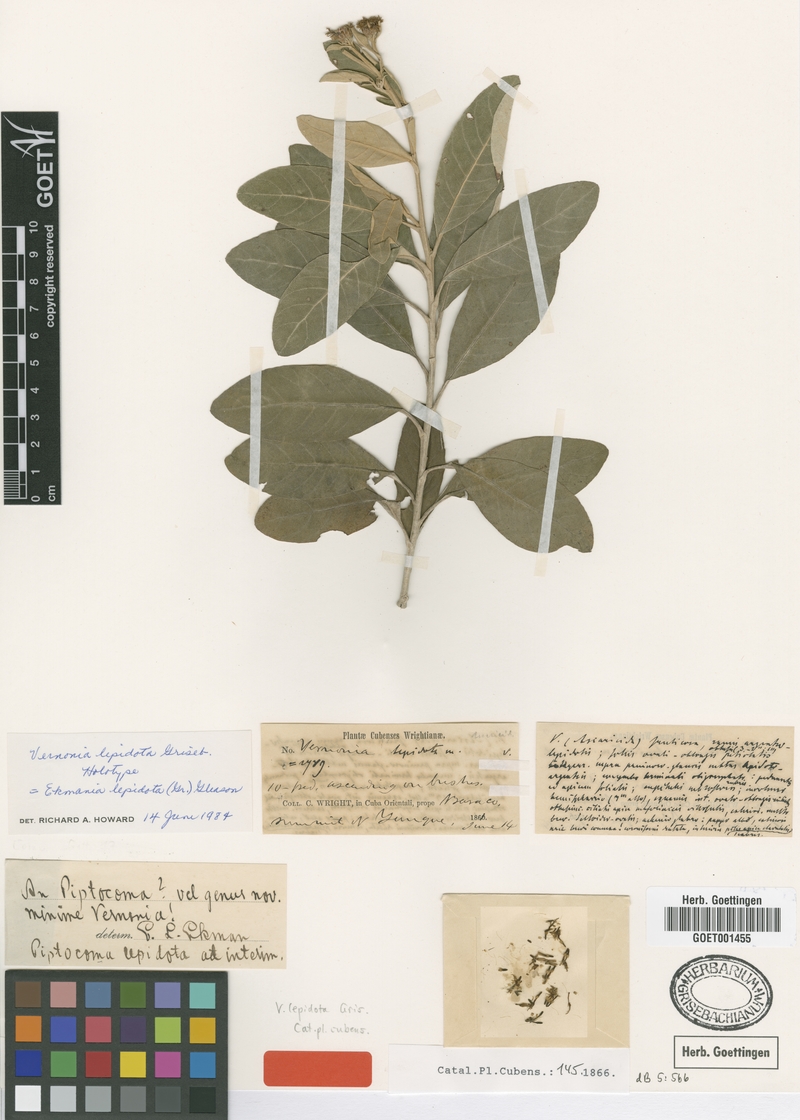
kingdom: Plantae
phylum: Tracheophyta
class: Magnoliopsida
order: Asterales
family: Asteraceae
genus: Ekmania
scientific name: Ekmania lepidota
